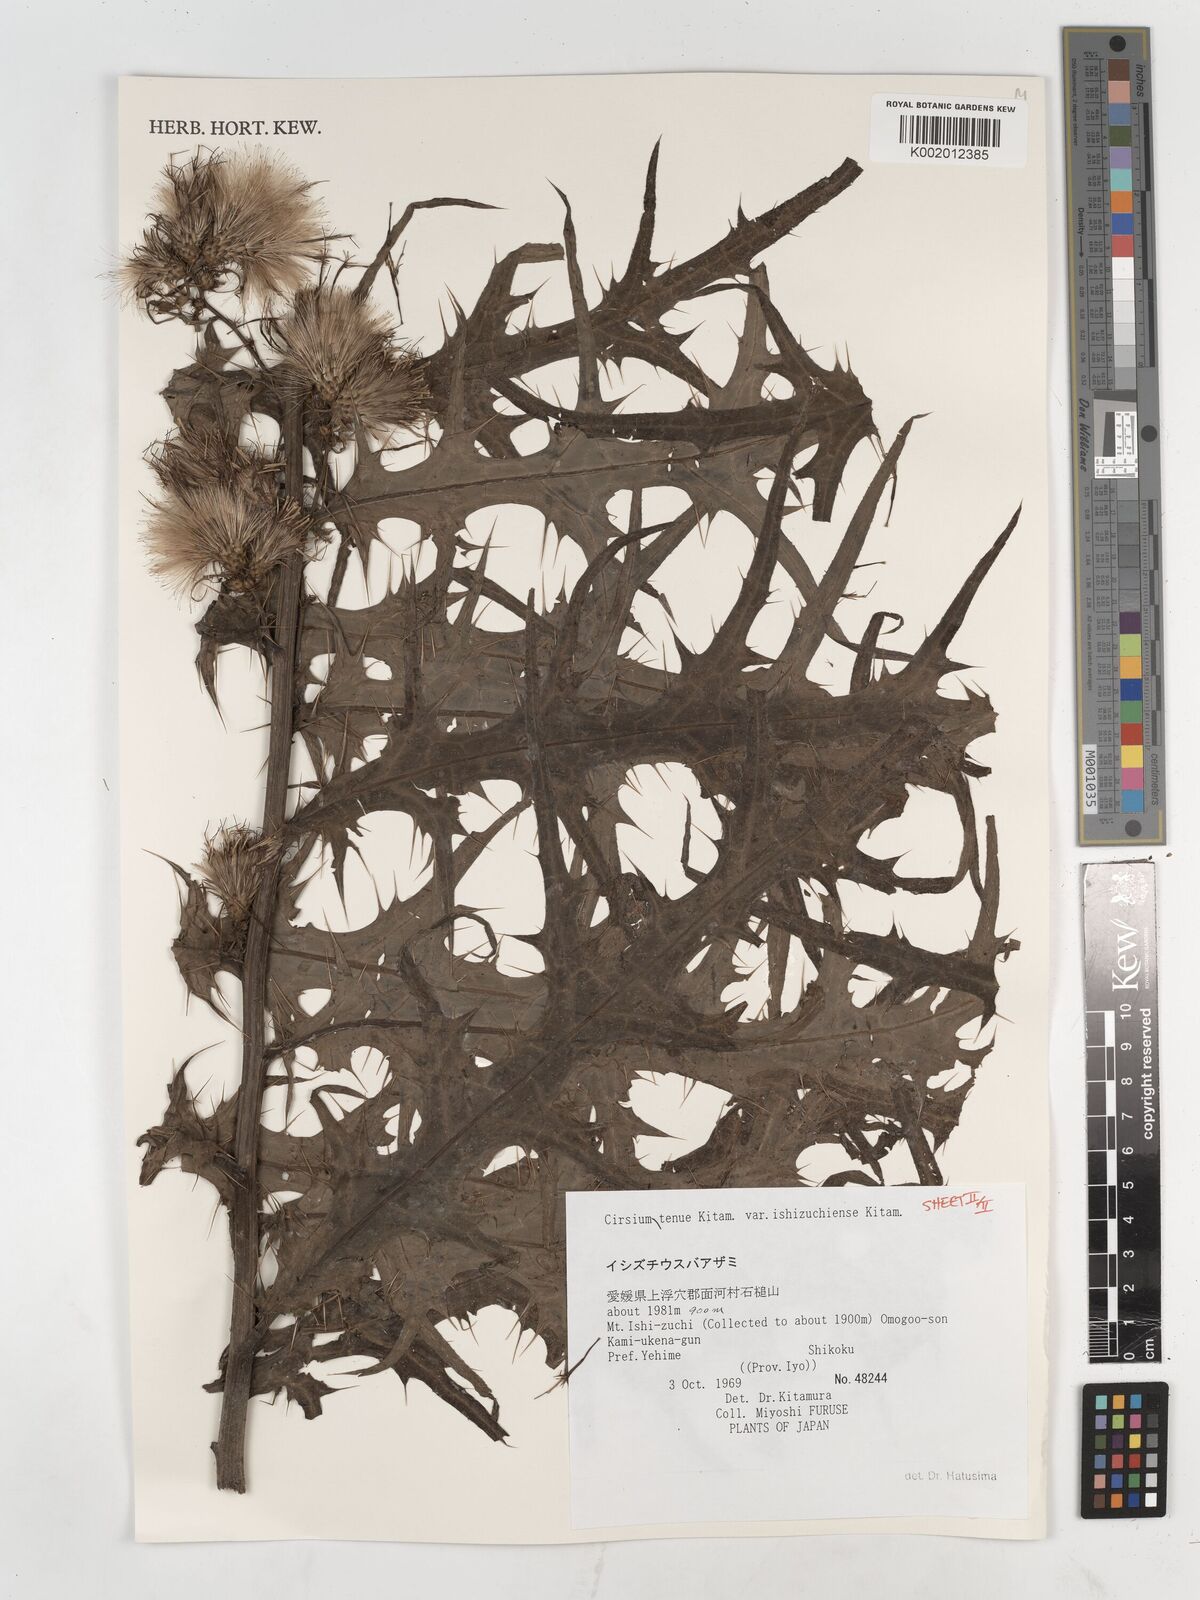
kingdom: Plantae
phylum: Tracheophyta
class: Magnoliopsida
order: Asterales
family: Asteraceae
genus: Cirsium
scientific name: Cirsium ishizuchiense
